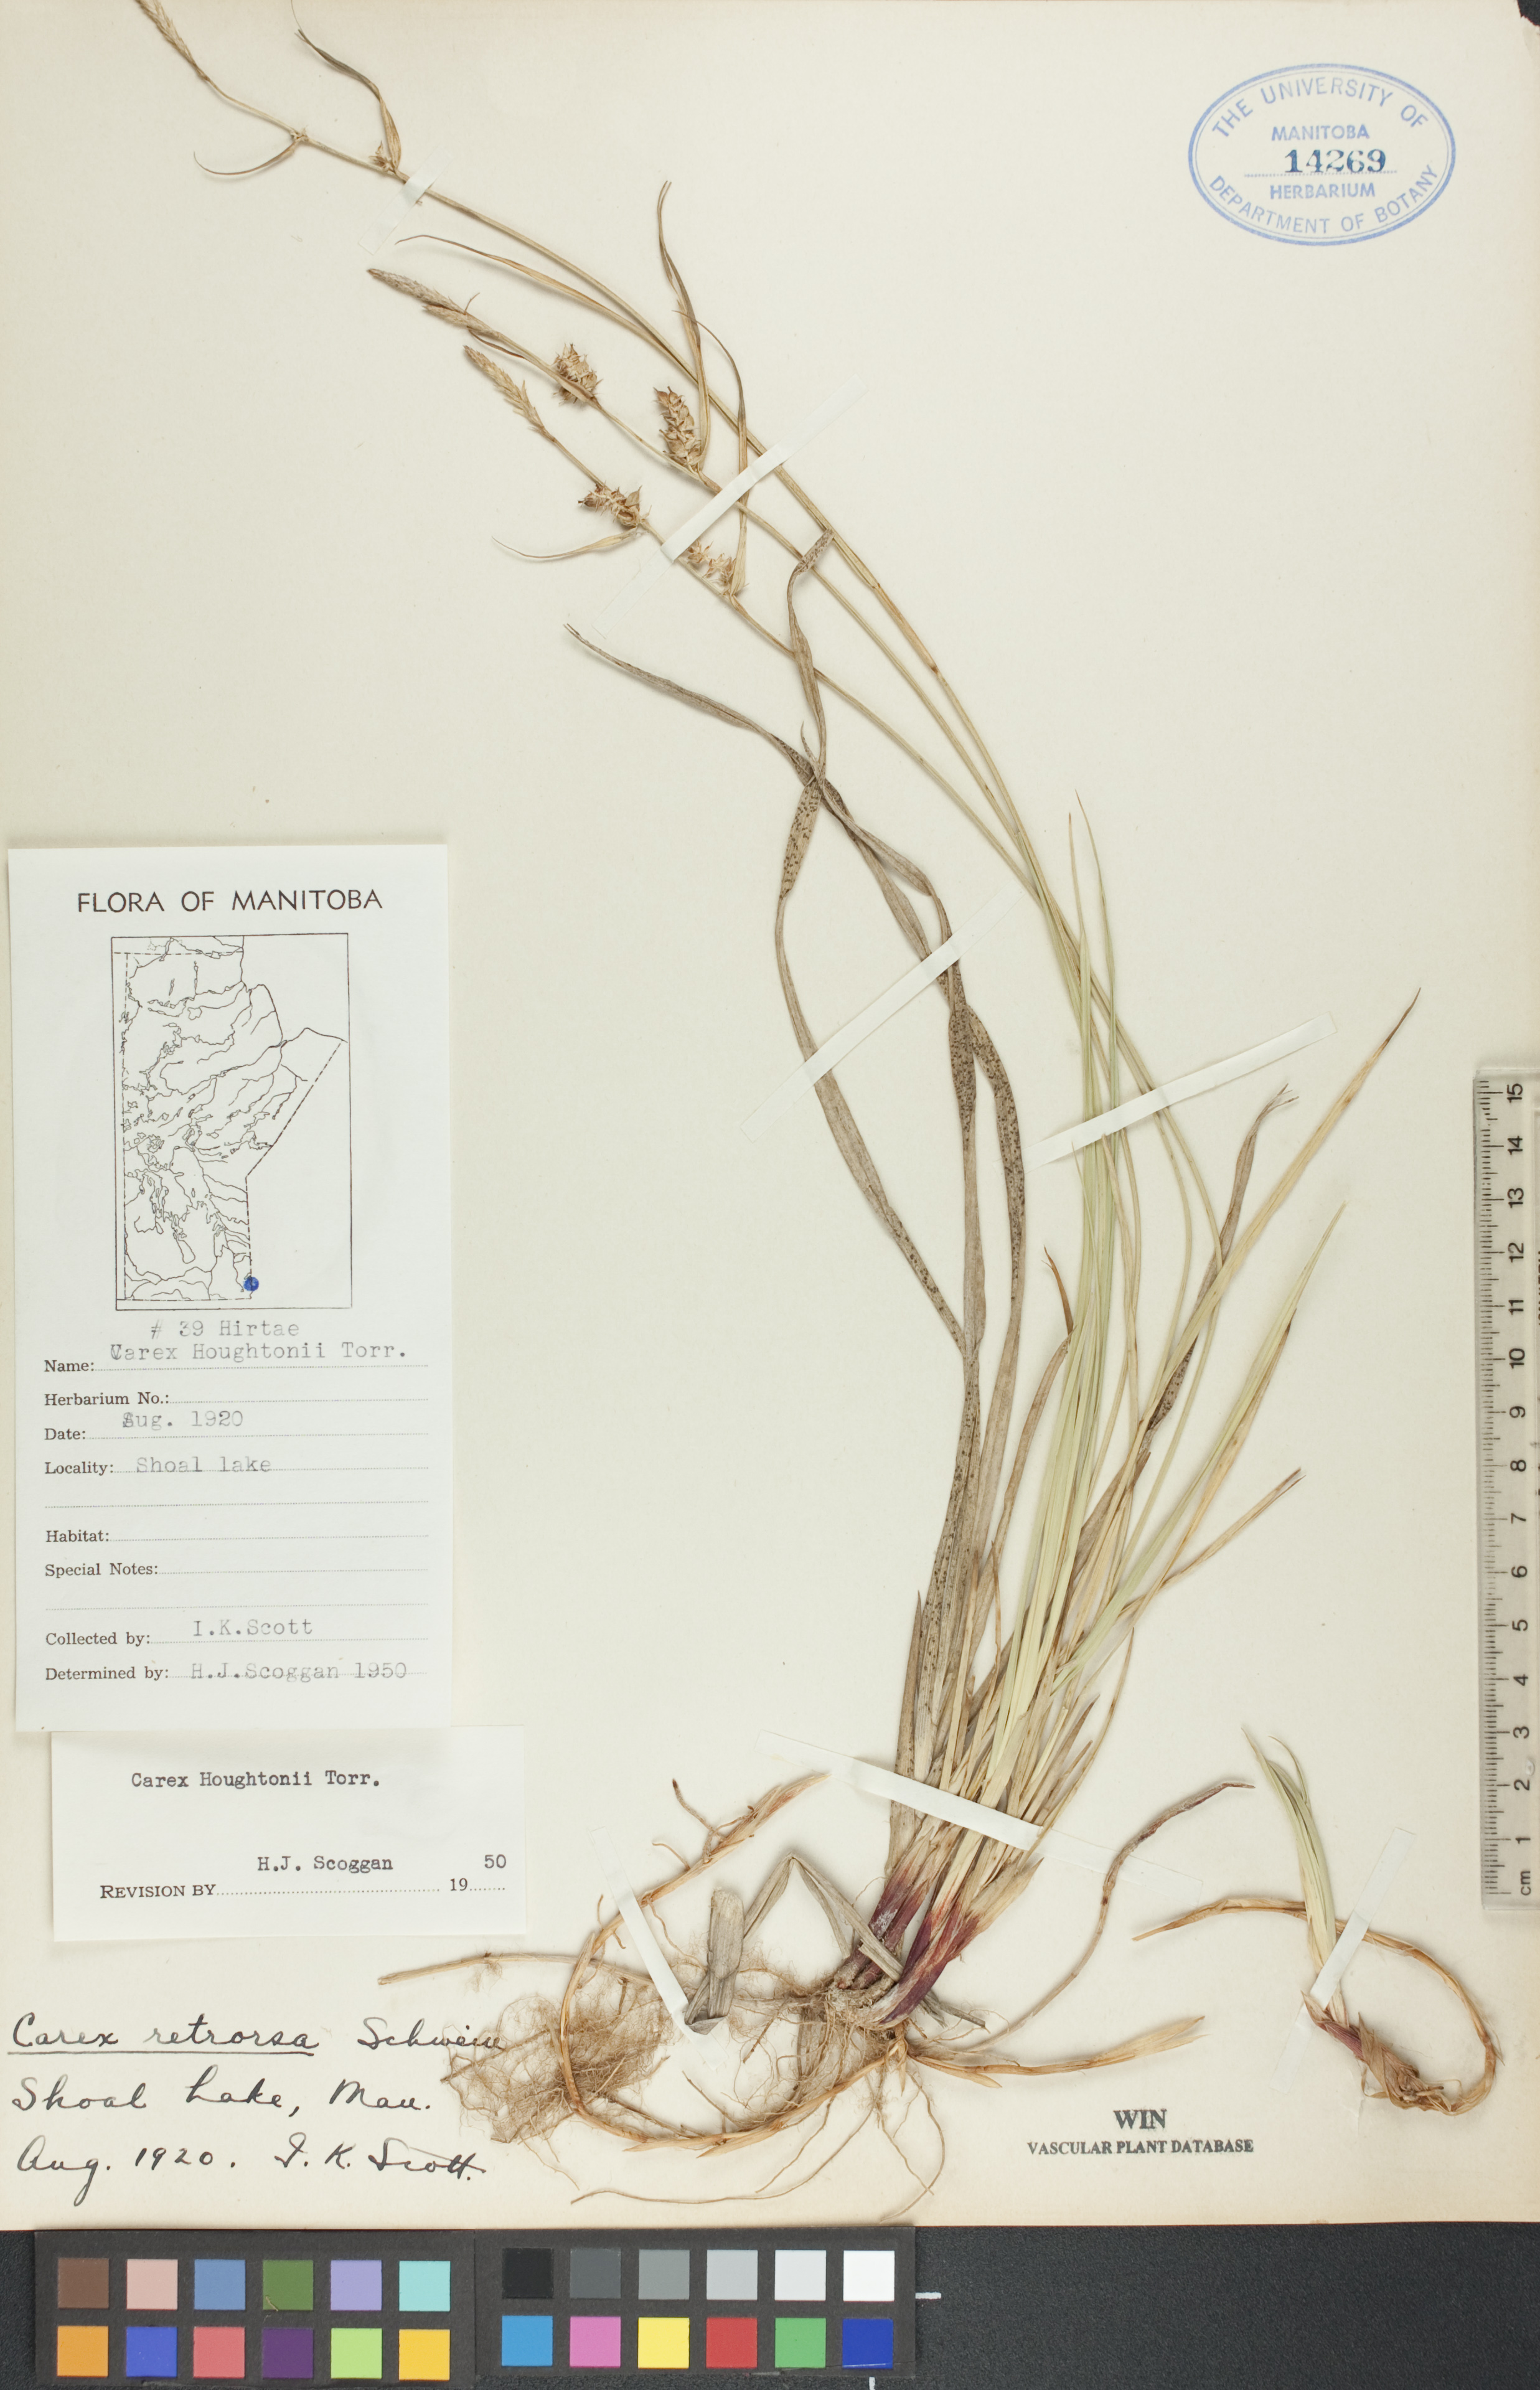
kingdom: Plantae
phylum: Tracheophyta
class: Liliopsida
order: Poales
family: Cyperaceae
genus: Carex
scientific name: Carex retrorsa
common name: Knot-sheath sedge
